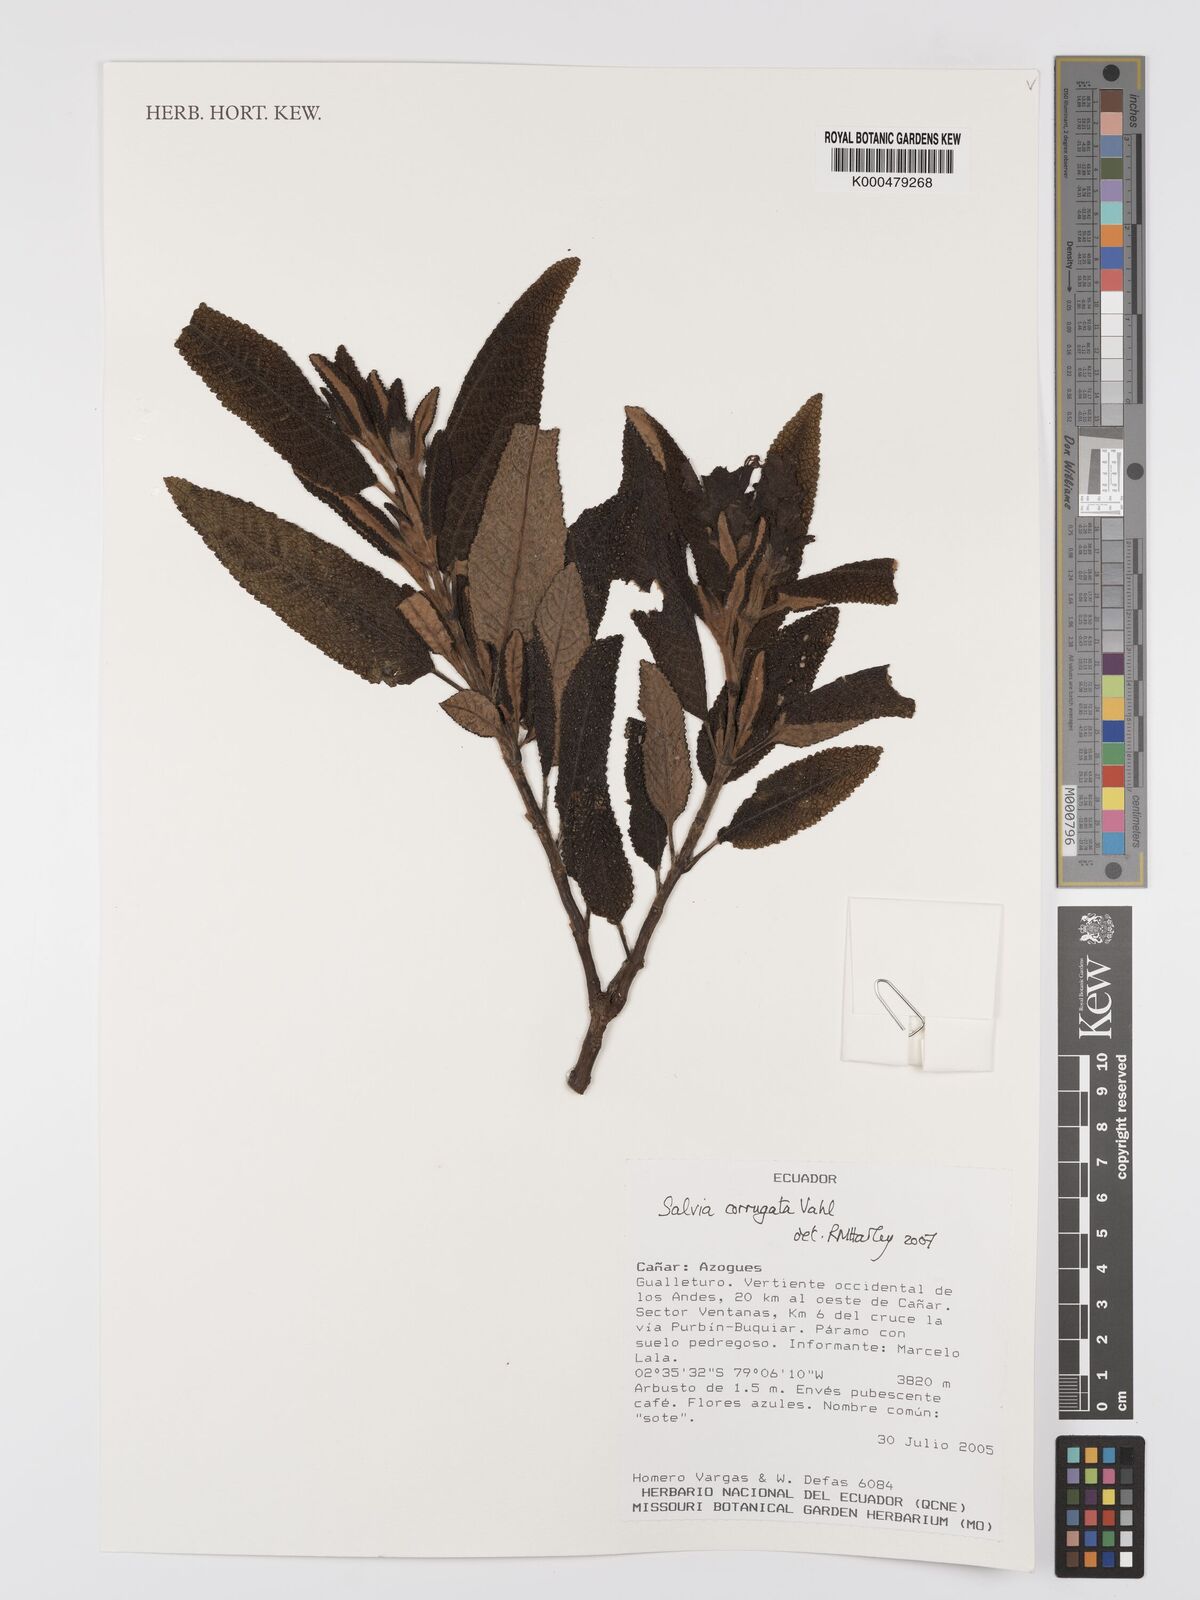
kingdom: Plantae
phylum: Tracheophyta
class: Magnoliopsida
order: Lamiales
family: Lamiaceae
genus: Salvia
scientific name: Salvia corrugata
